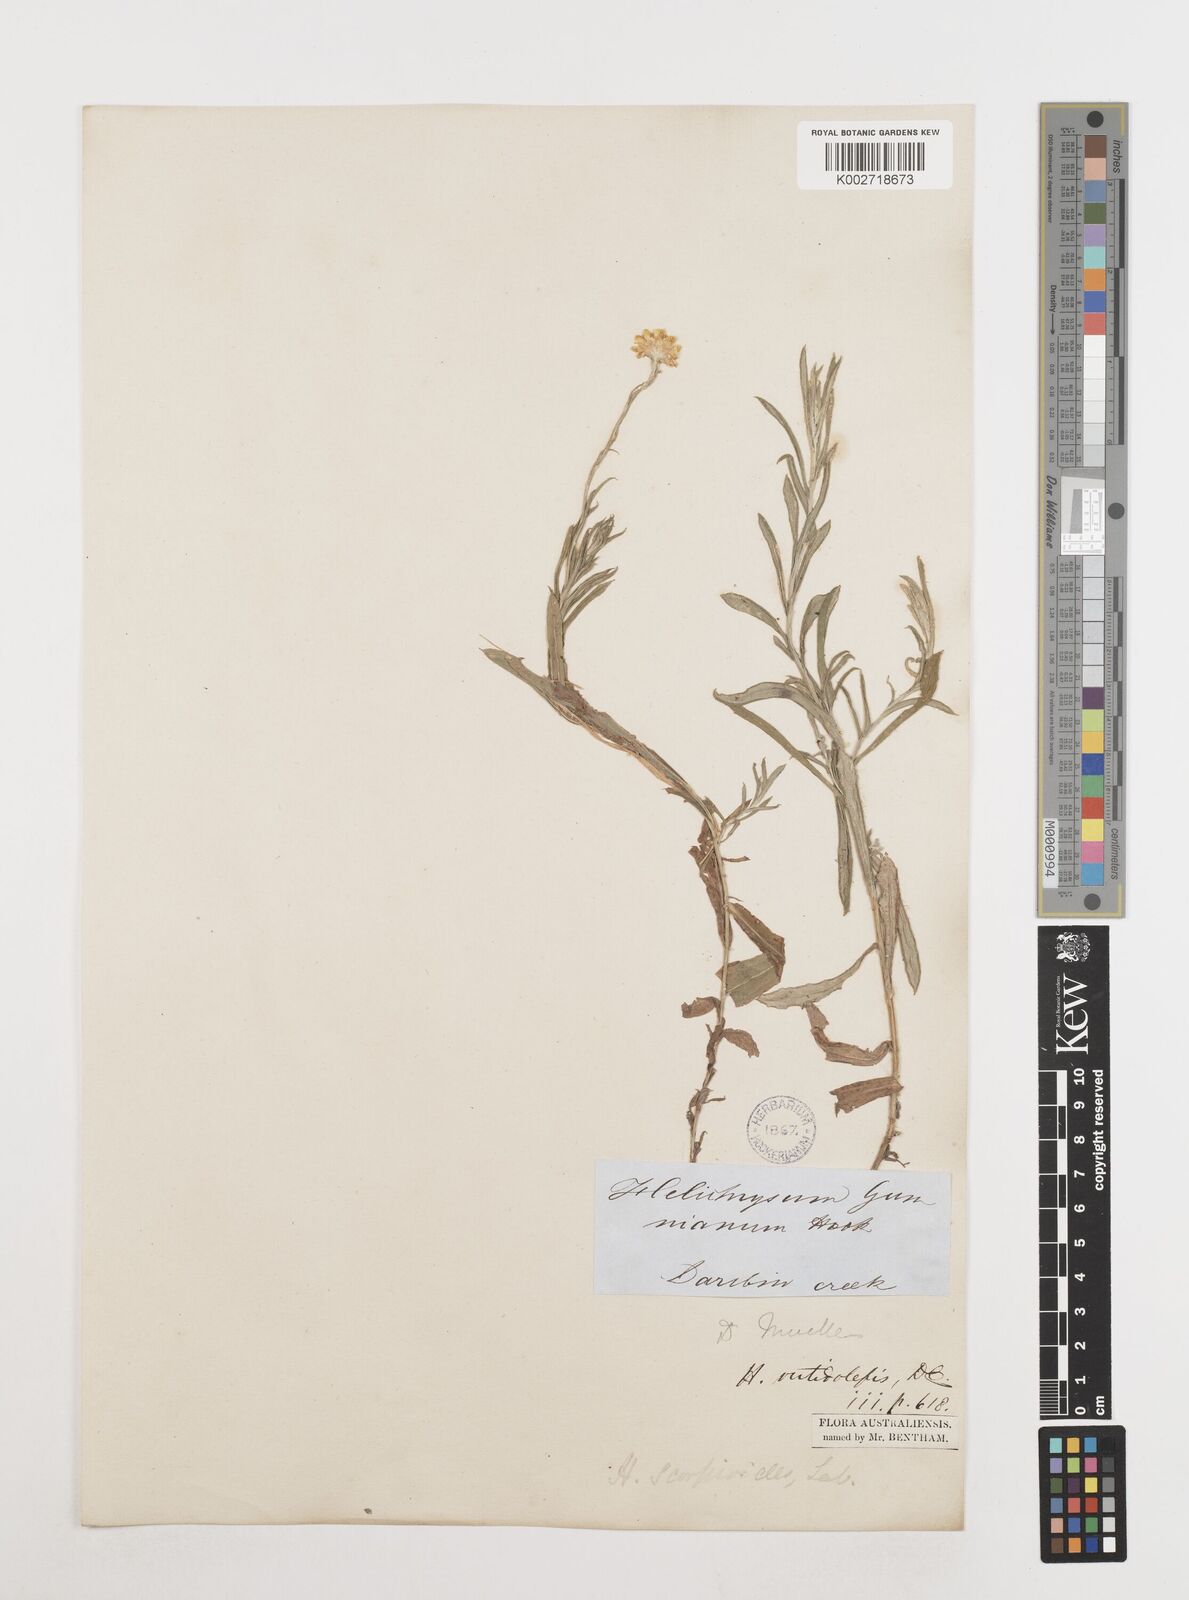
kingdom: Plantae
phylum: Tracheophyta
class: Magnoliopsida
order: Asterales
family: Asteraceae
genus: Coronidium
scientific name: Coronidium rutidolepis
